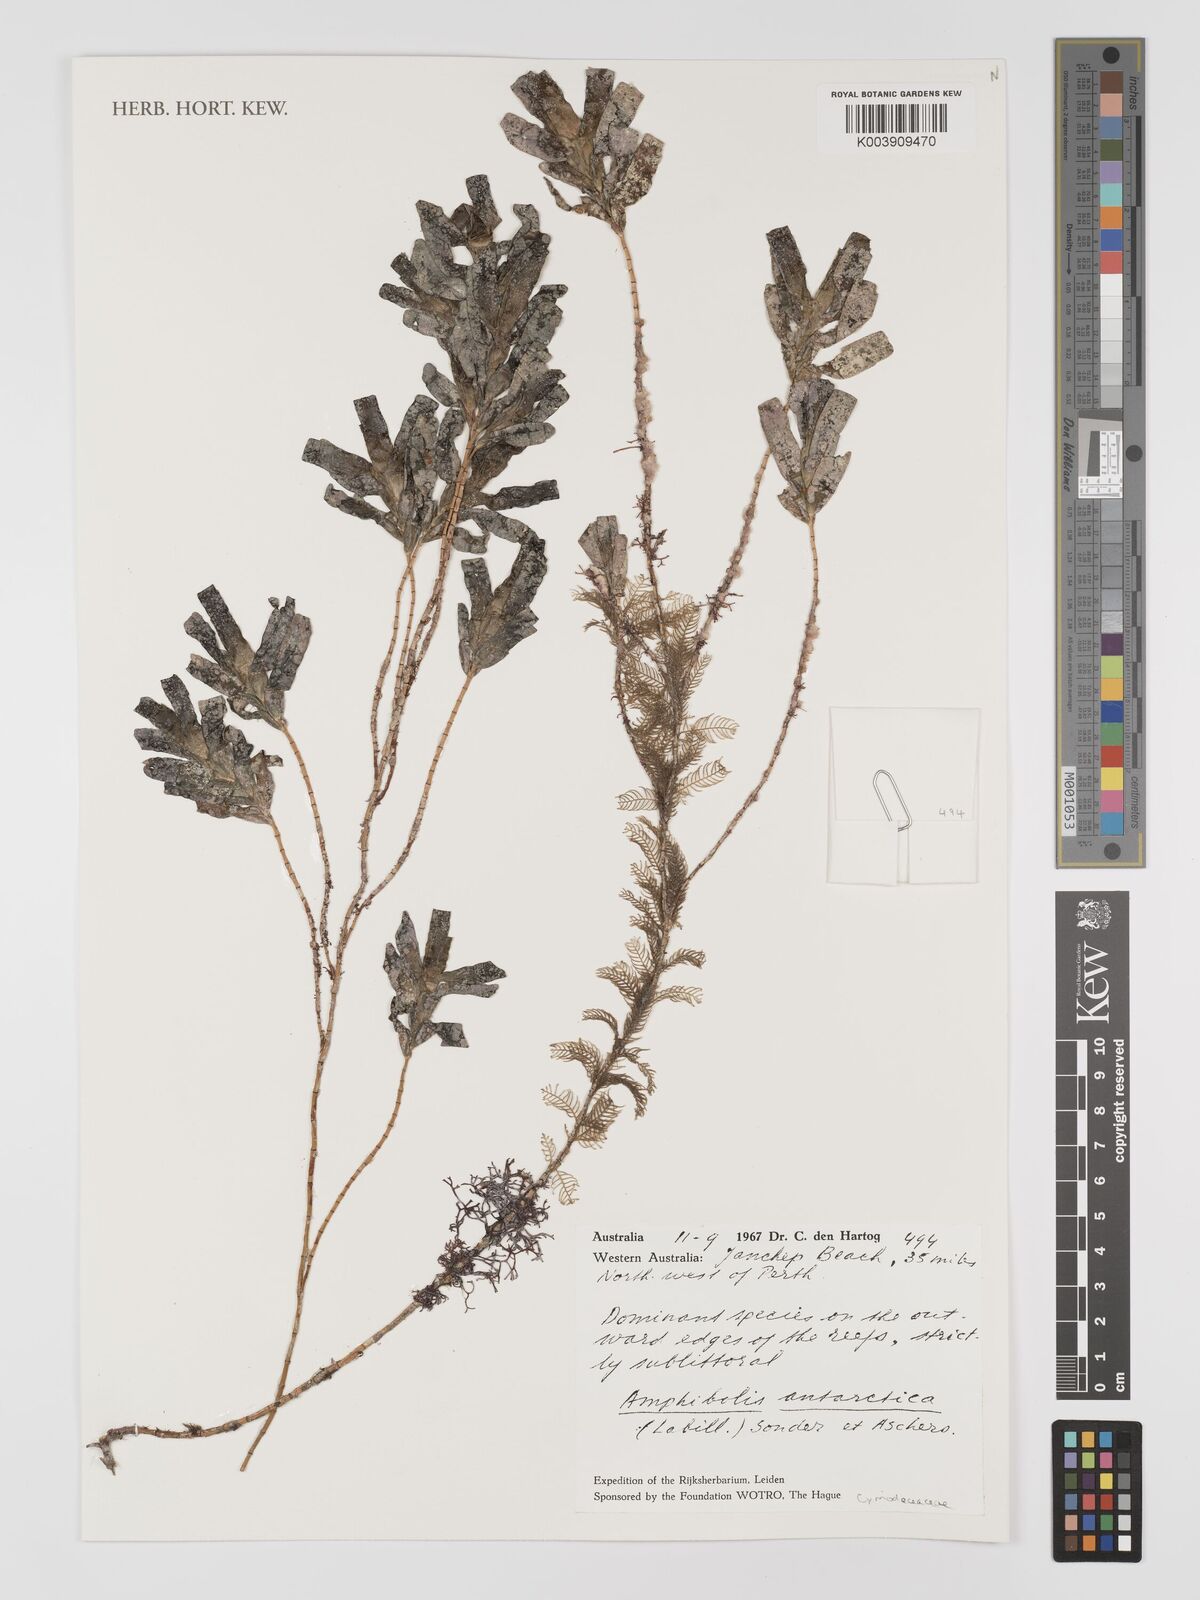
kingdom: Plantae
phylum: Tracheophyta
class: Liliopsida
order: Alismatales
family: Cymodoceaceae
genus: Amphibolis
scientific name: Amphibolis antarctica
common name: Species code: aa
